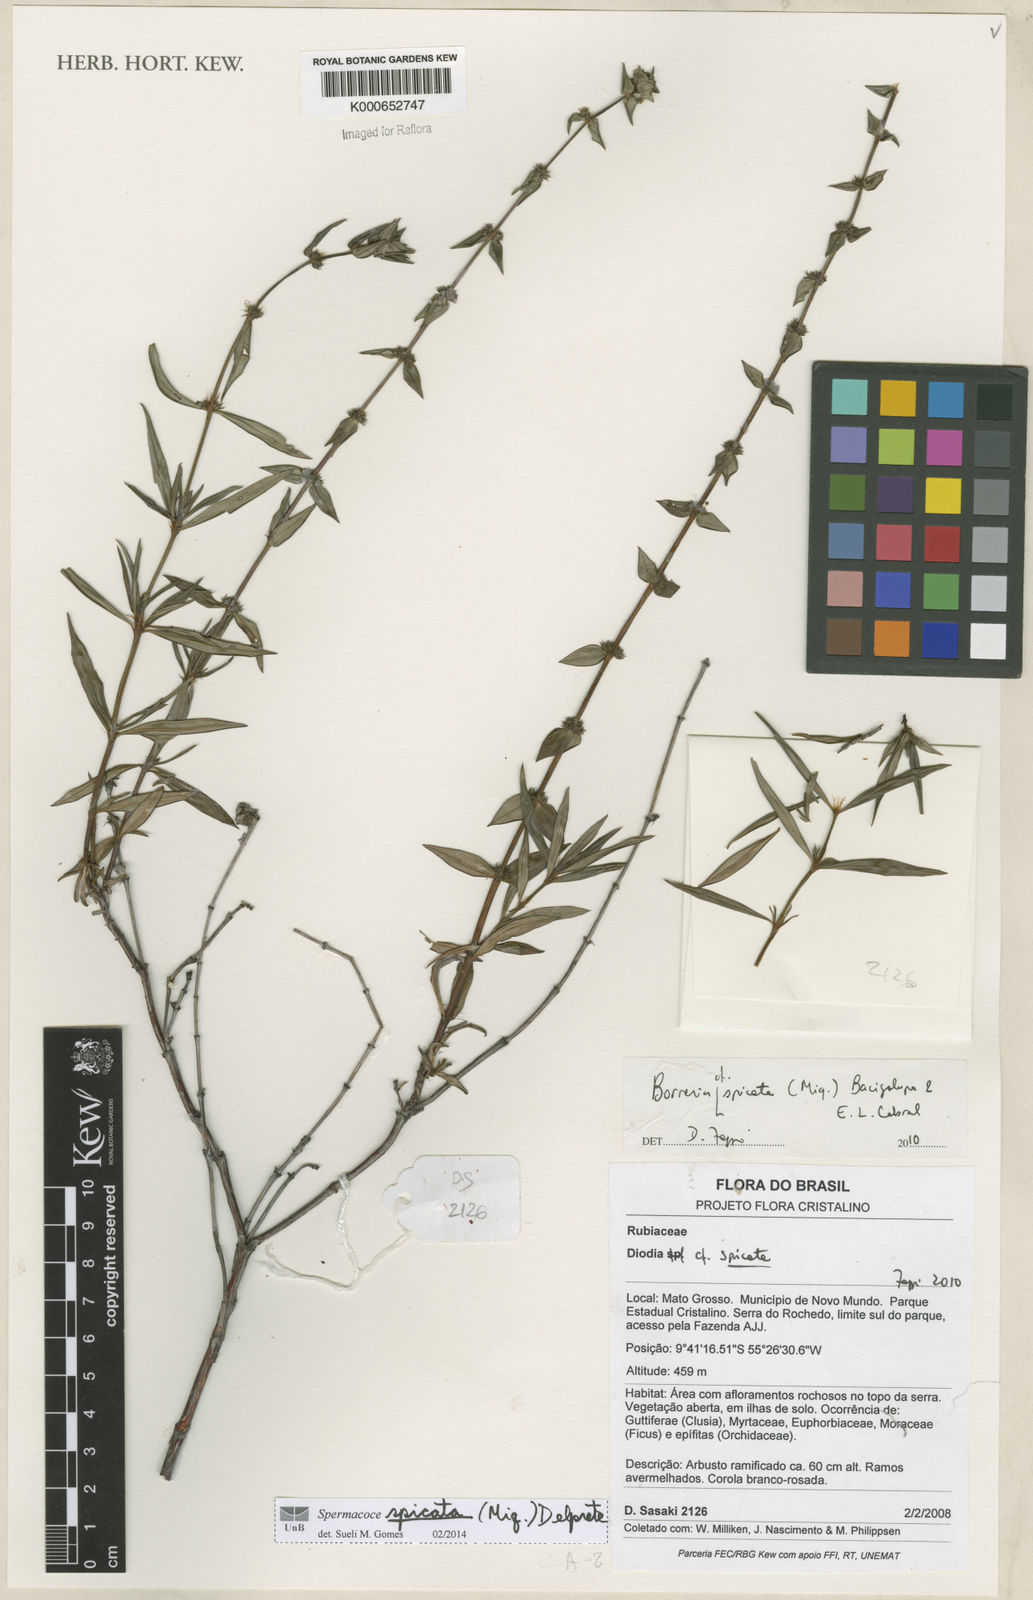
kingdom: Plantae
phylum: Tracheophyta
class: Magnoliopsida
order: Gentianales
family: Rubiaceae
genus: Galianthe
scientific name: Galianthe spicata
